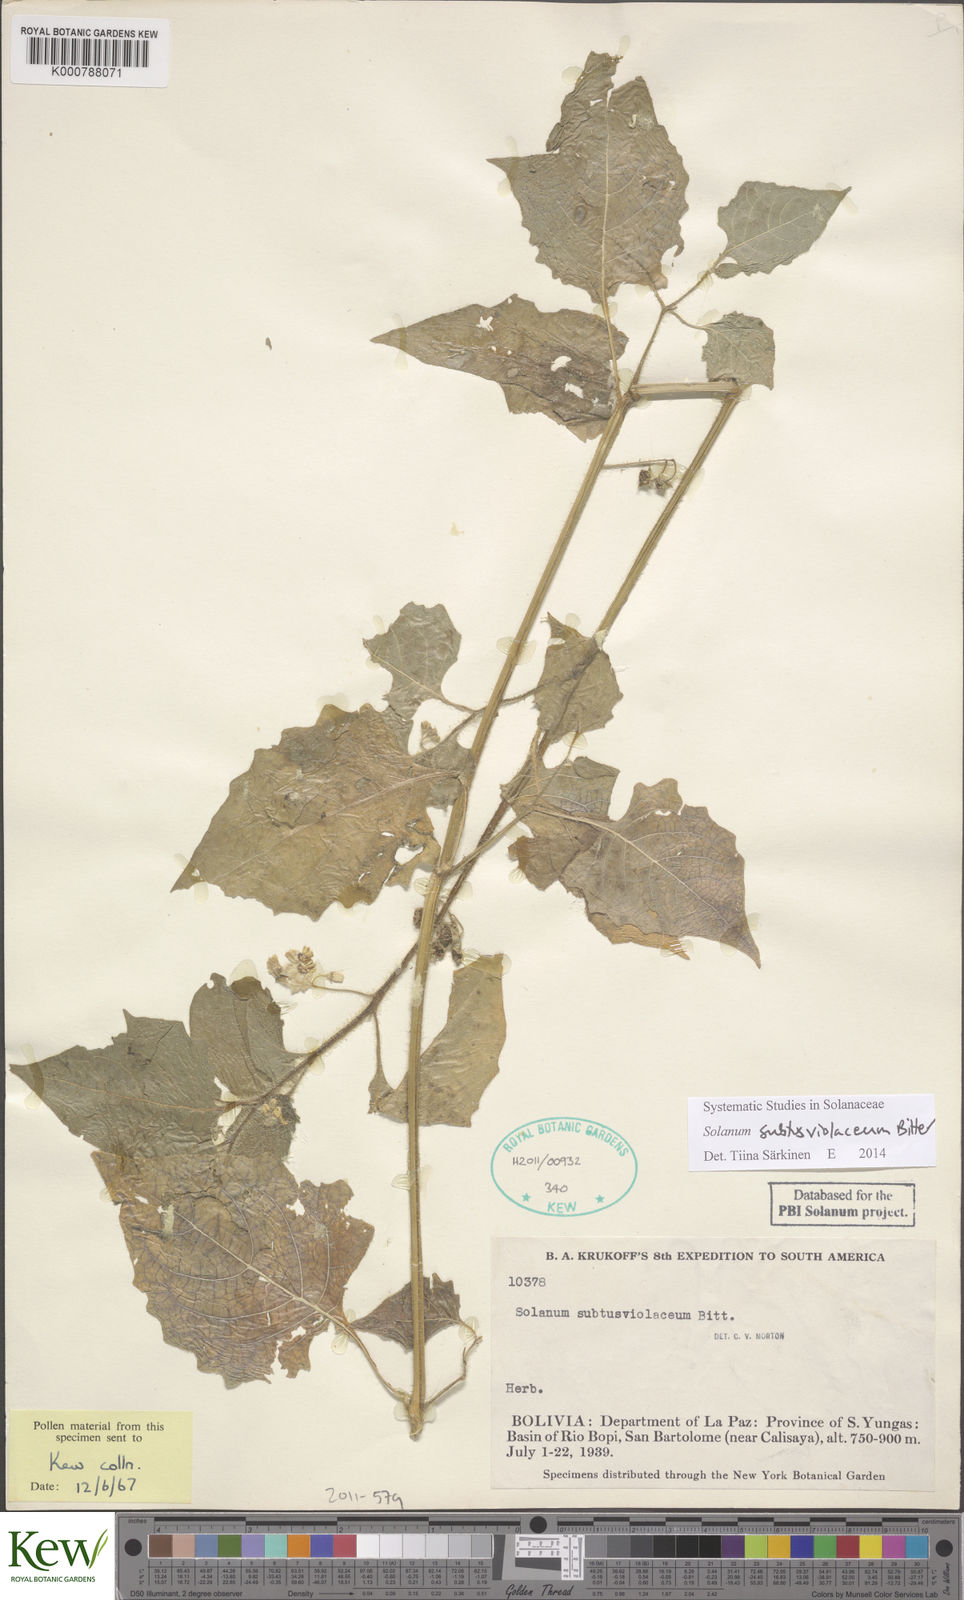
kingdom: Plantae
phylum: Tracheophyta
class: Magnoliopsida
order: Solanales
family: Solanaceae
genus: Solanum
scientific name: Solanum pallidum
